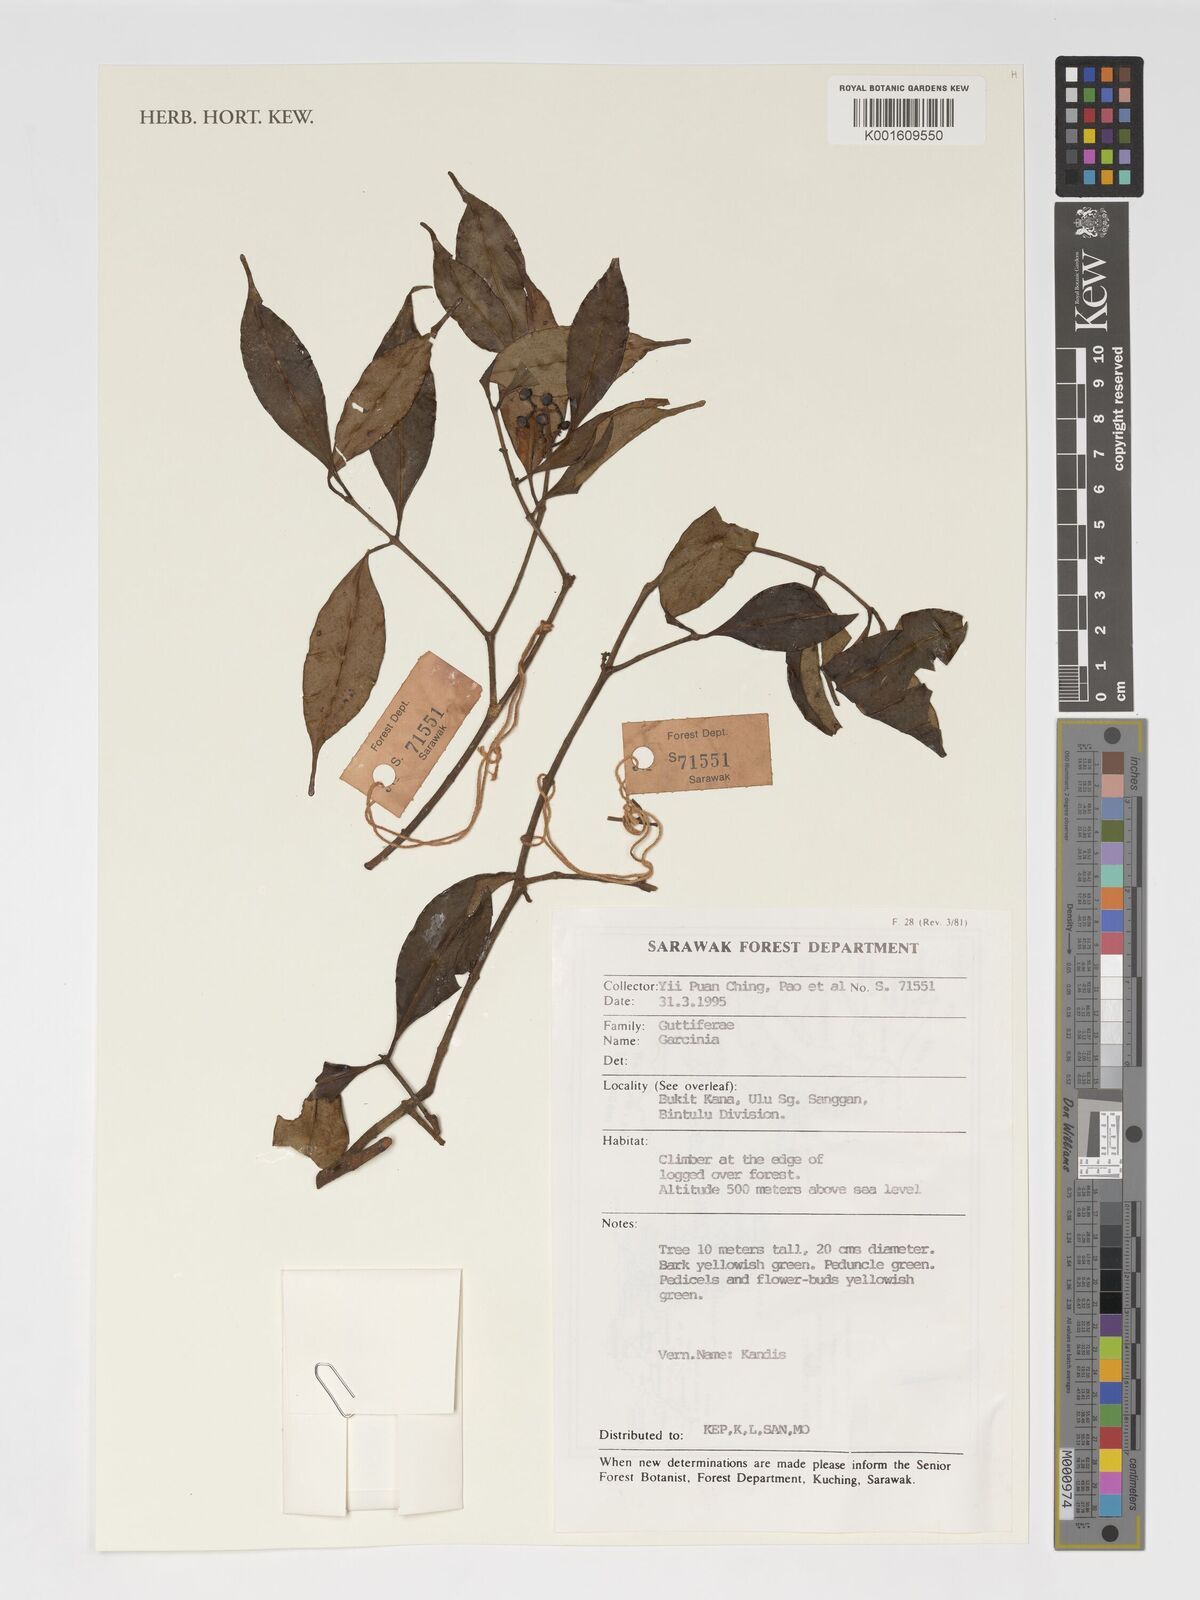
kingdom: Plantae
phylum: Tracheophyta
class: Magnoliopsida
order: Malpighiales
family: Clusiaceae
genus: Garcinia
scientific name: Garcinia
